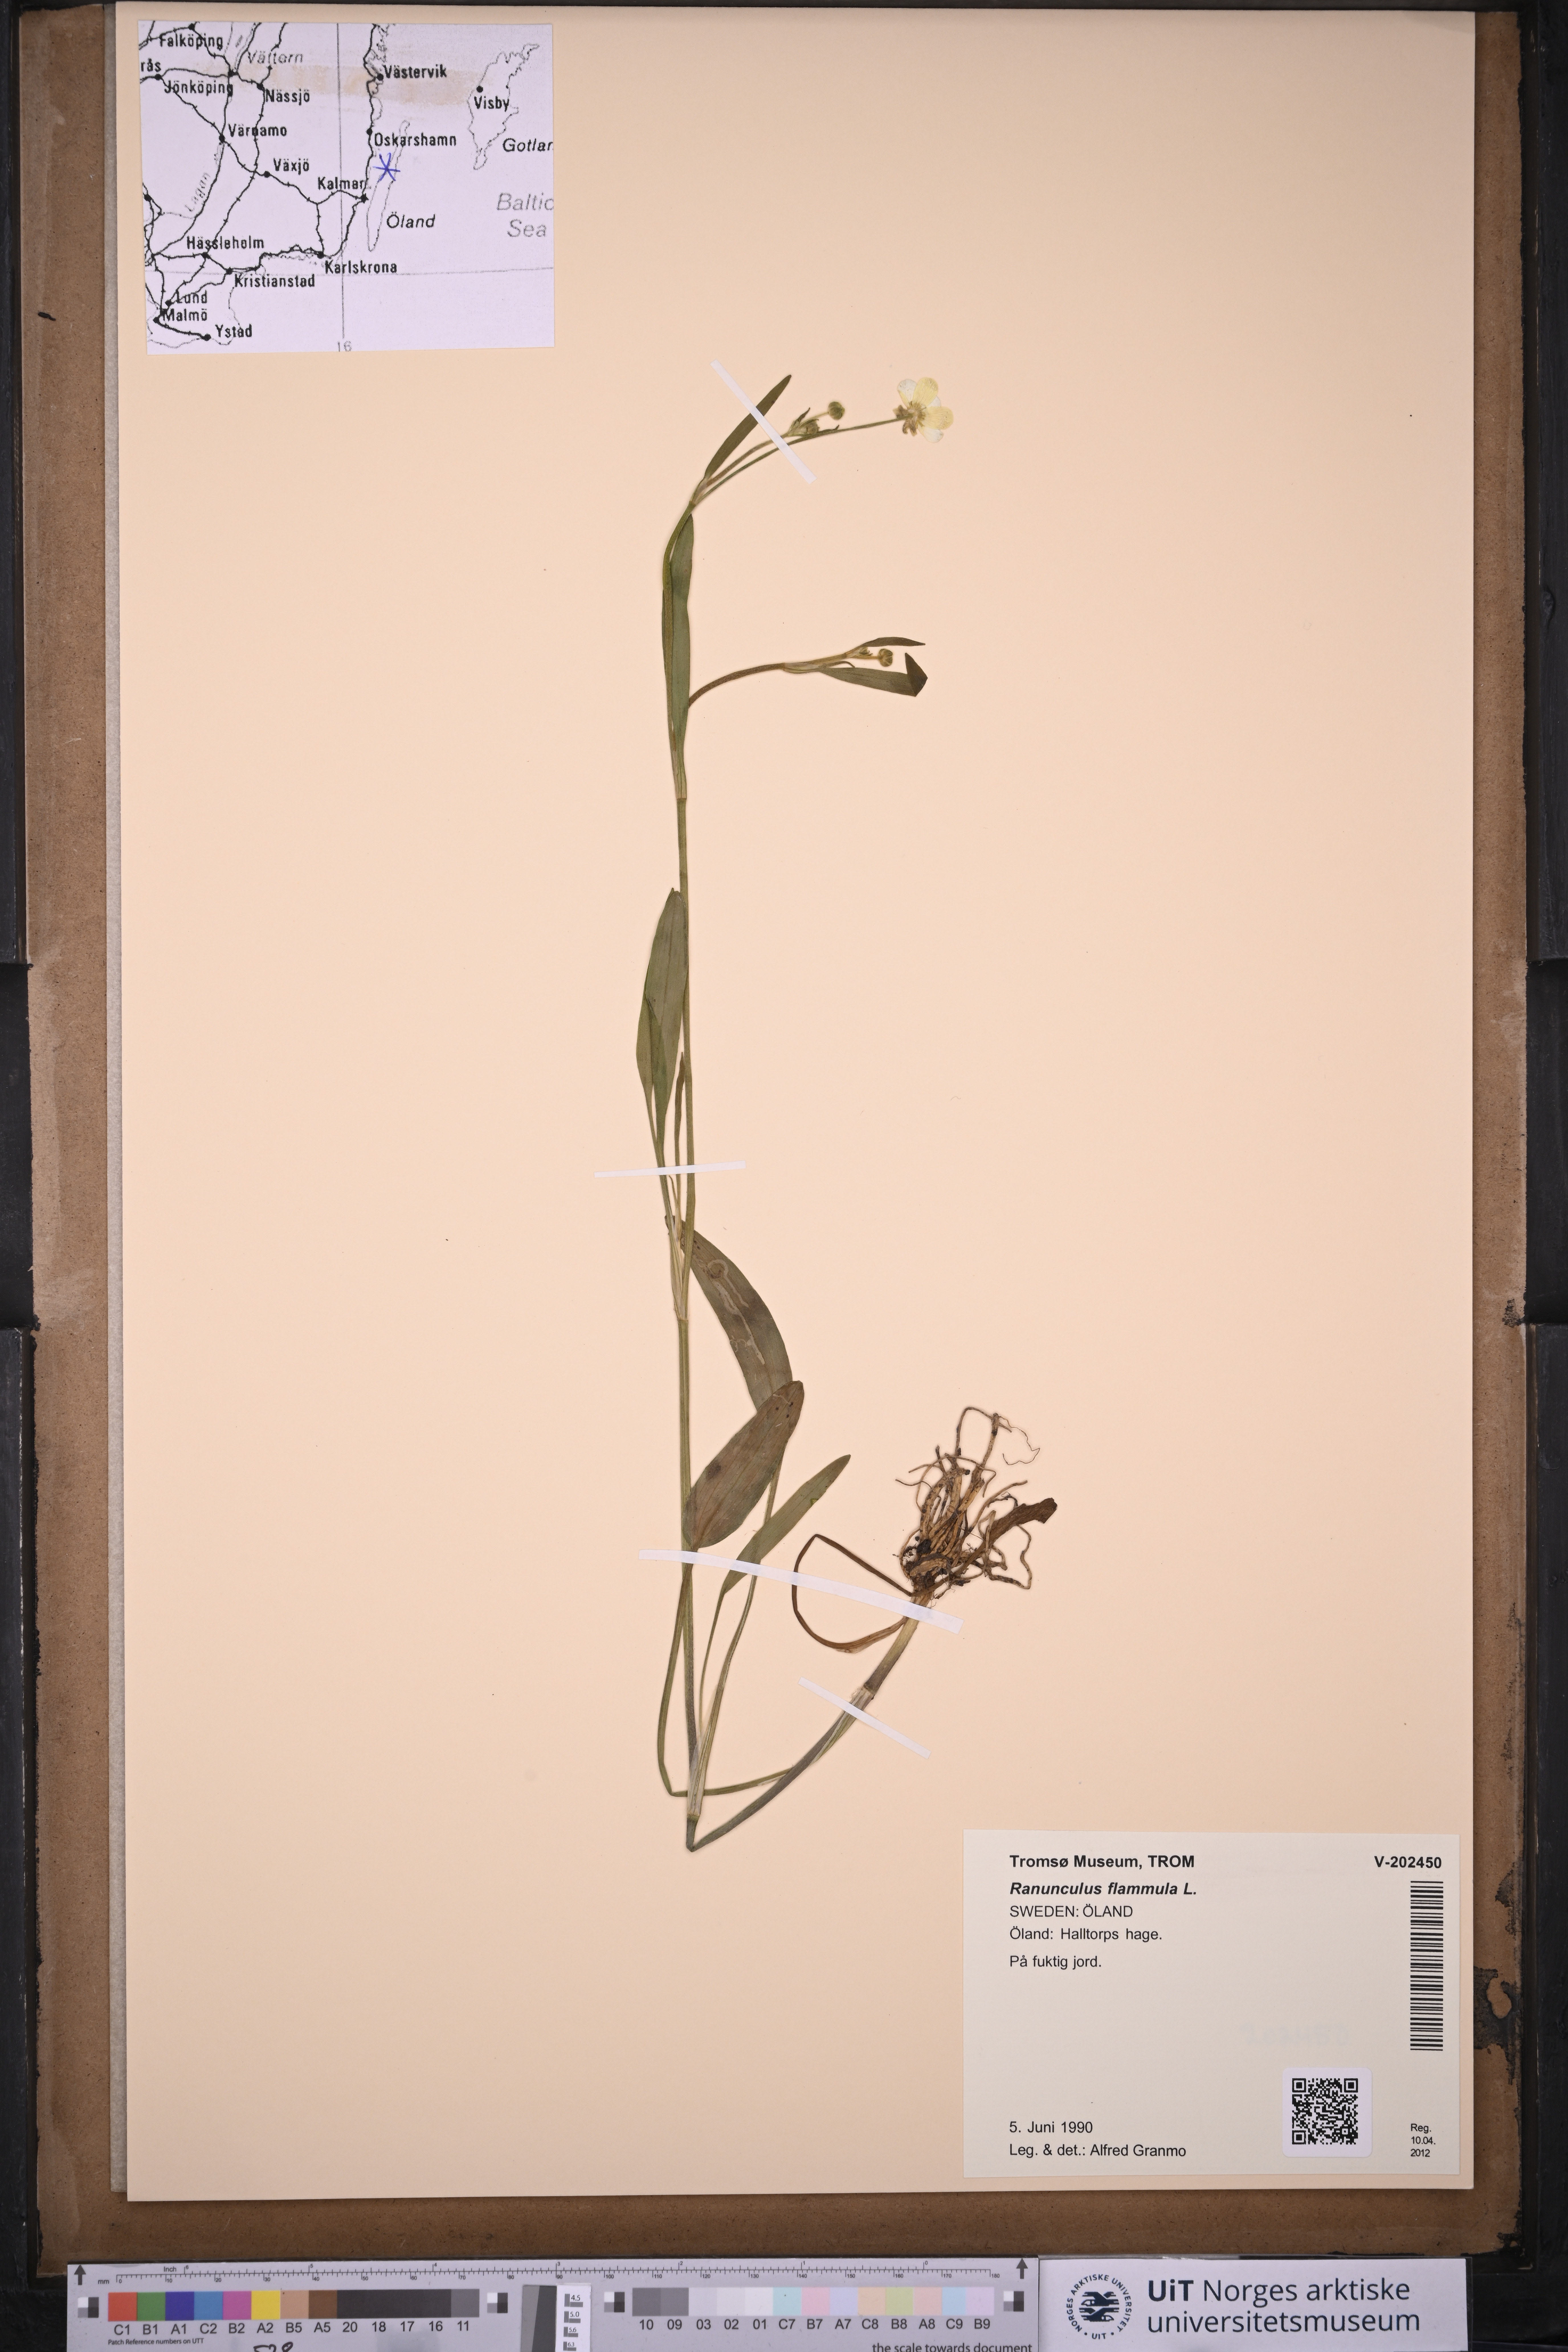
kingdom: Plantae
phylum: Tracheophyta
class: Magnoliopsida
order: Ranunculales
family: Ranunculaceae
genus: Ranunculus
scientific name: Ranunculus flammula
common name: Lesser spearwort
